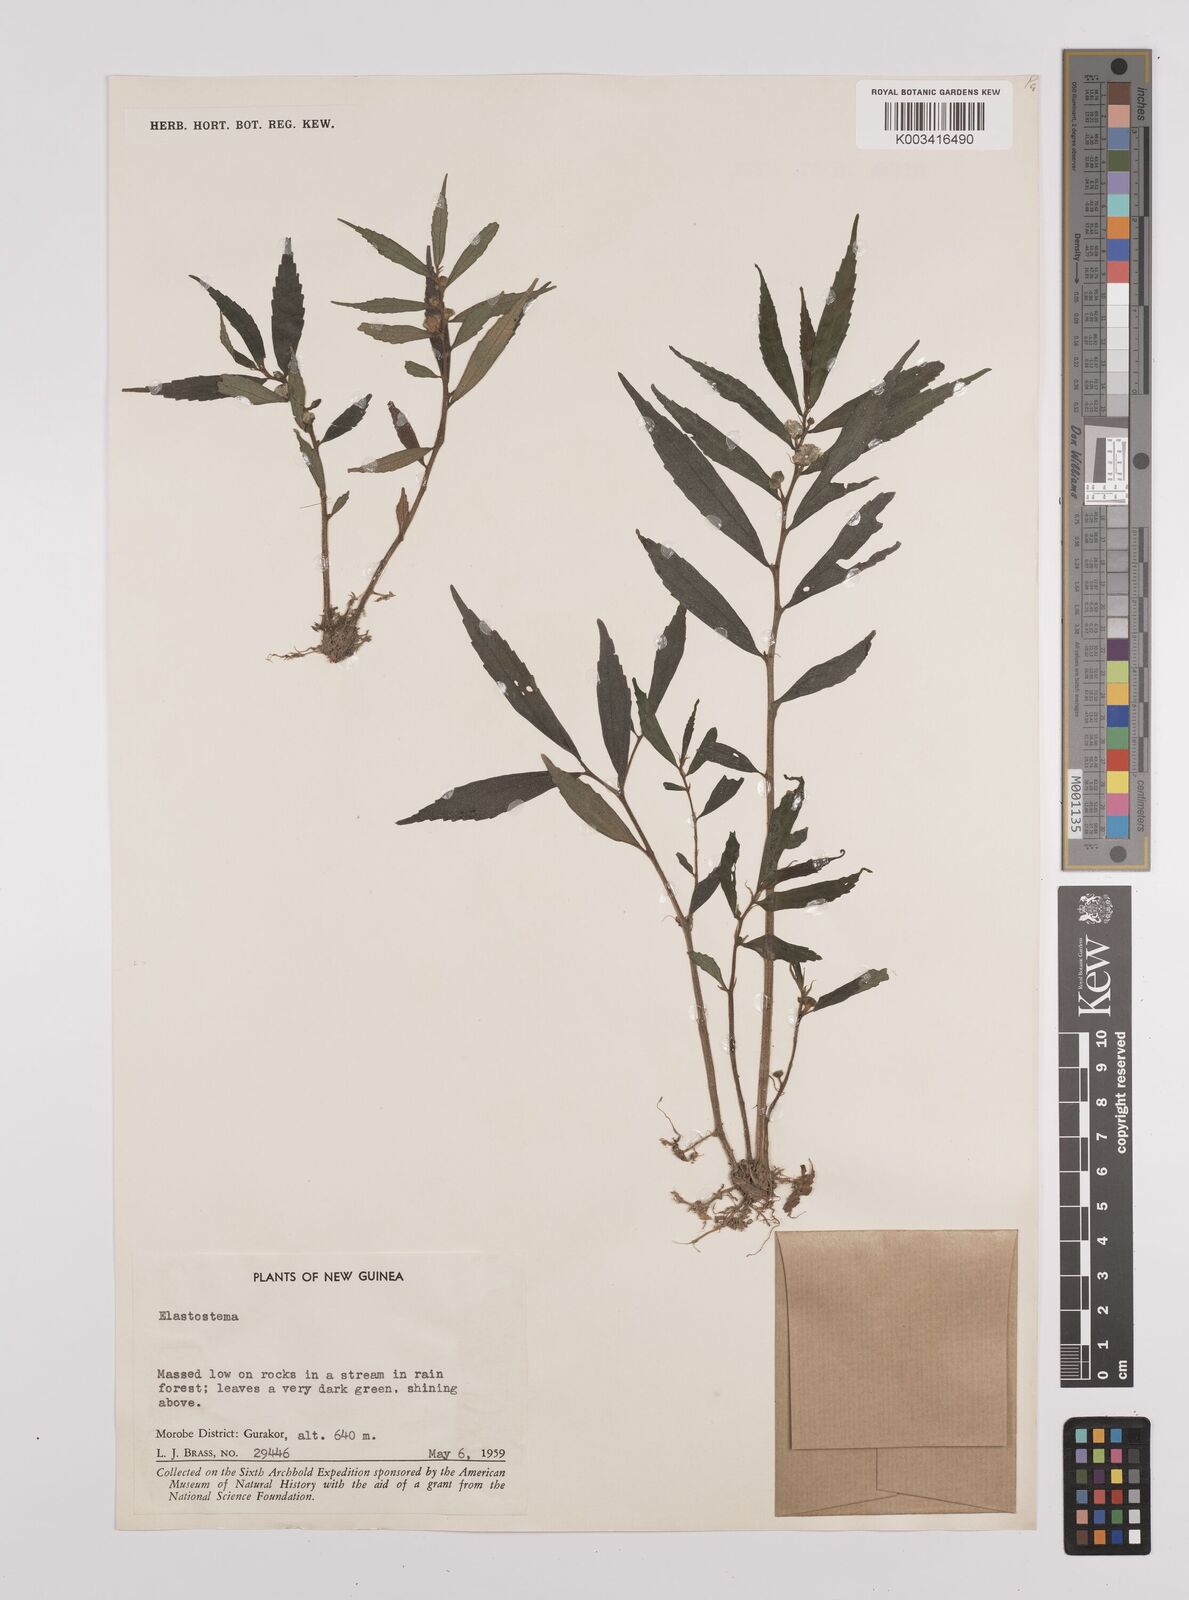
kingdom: Plantae
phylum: Tracheophyta
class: Magnoliopsida
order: Rosales
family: Urticaceae
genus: Elatostema
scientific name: Elatostema
